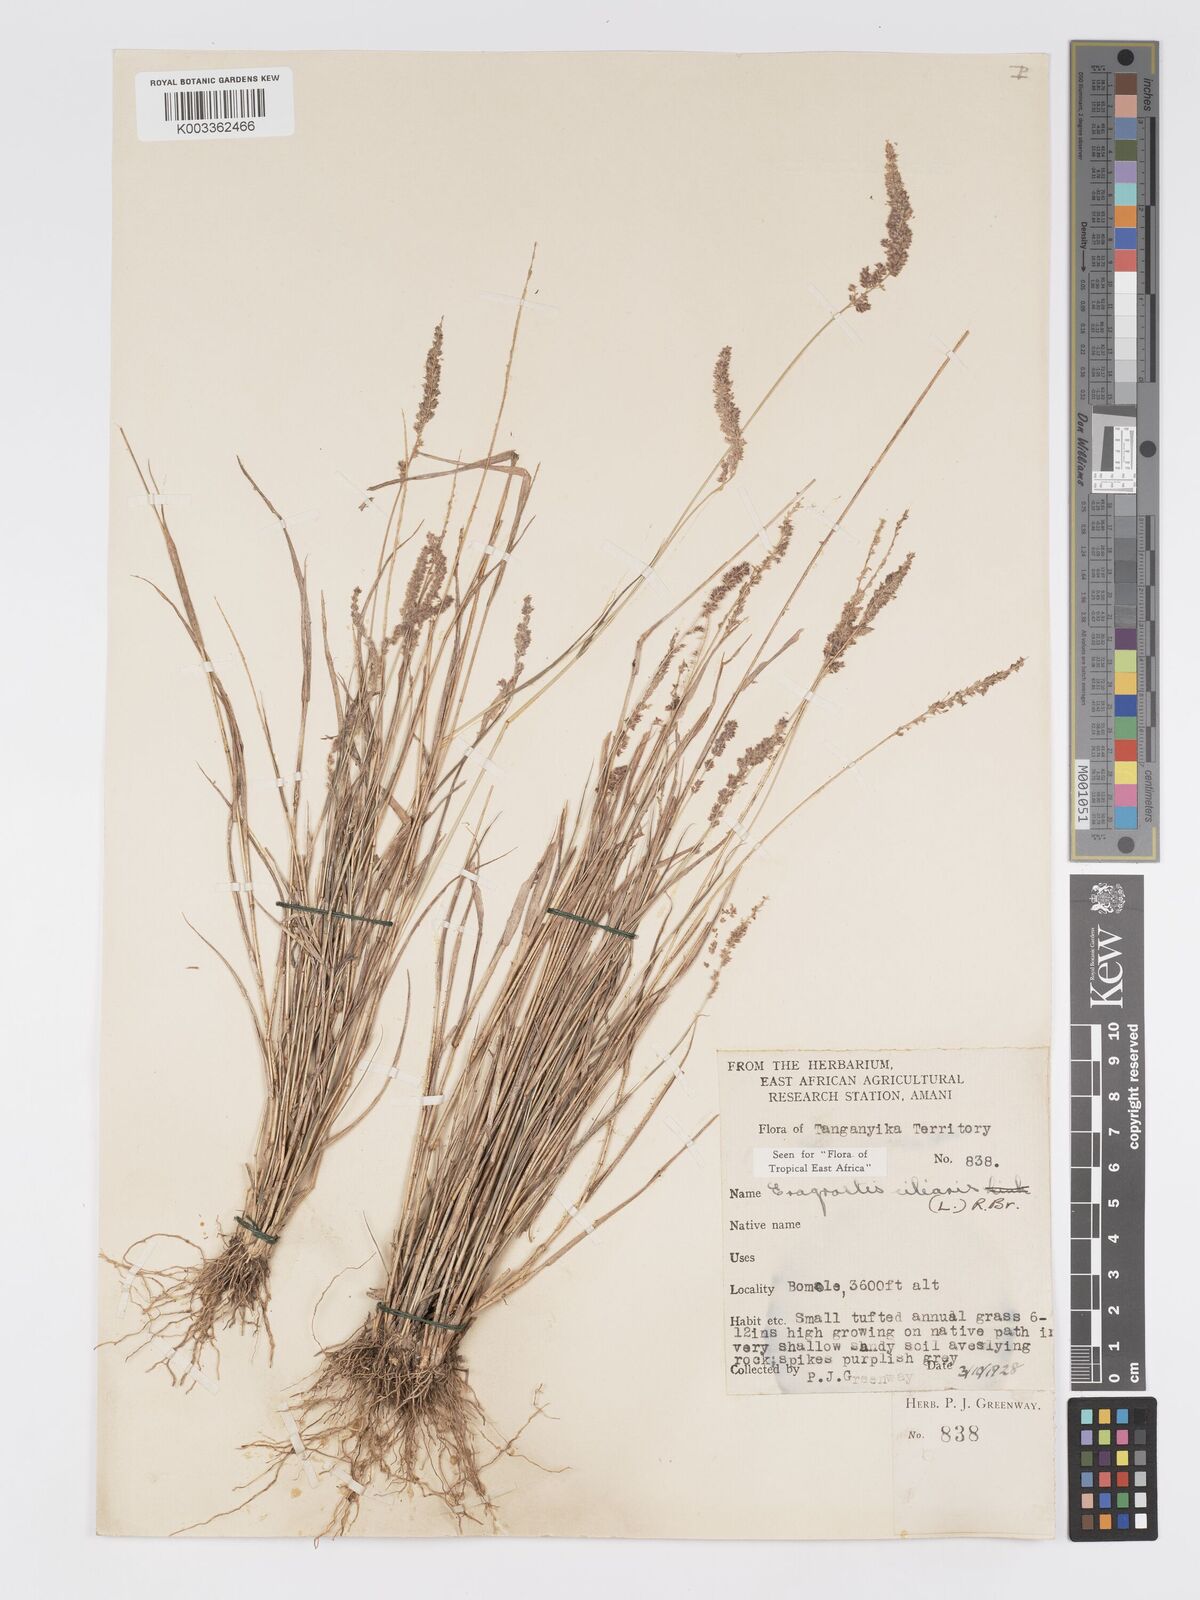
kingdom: Plantae
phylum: Tracheophyta
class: Liliopsida
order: Poales
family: Poaceae
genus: Eragrostis
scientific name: Eragrostis ciliaris
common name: Gophertail lovegrass
